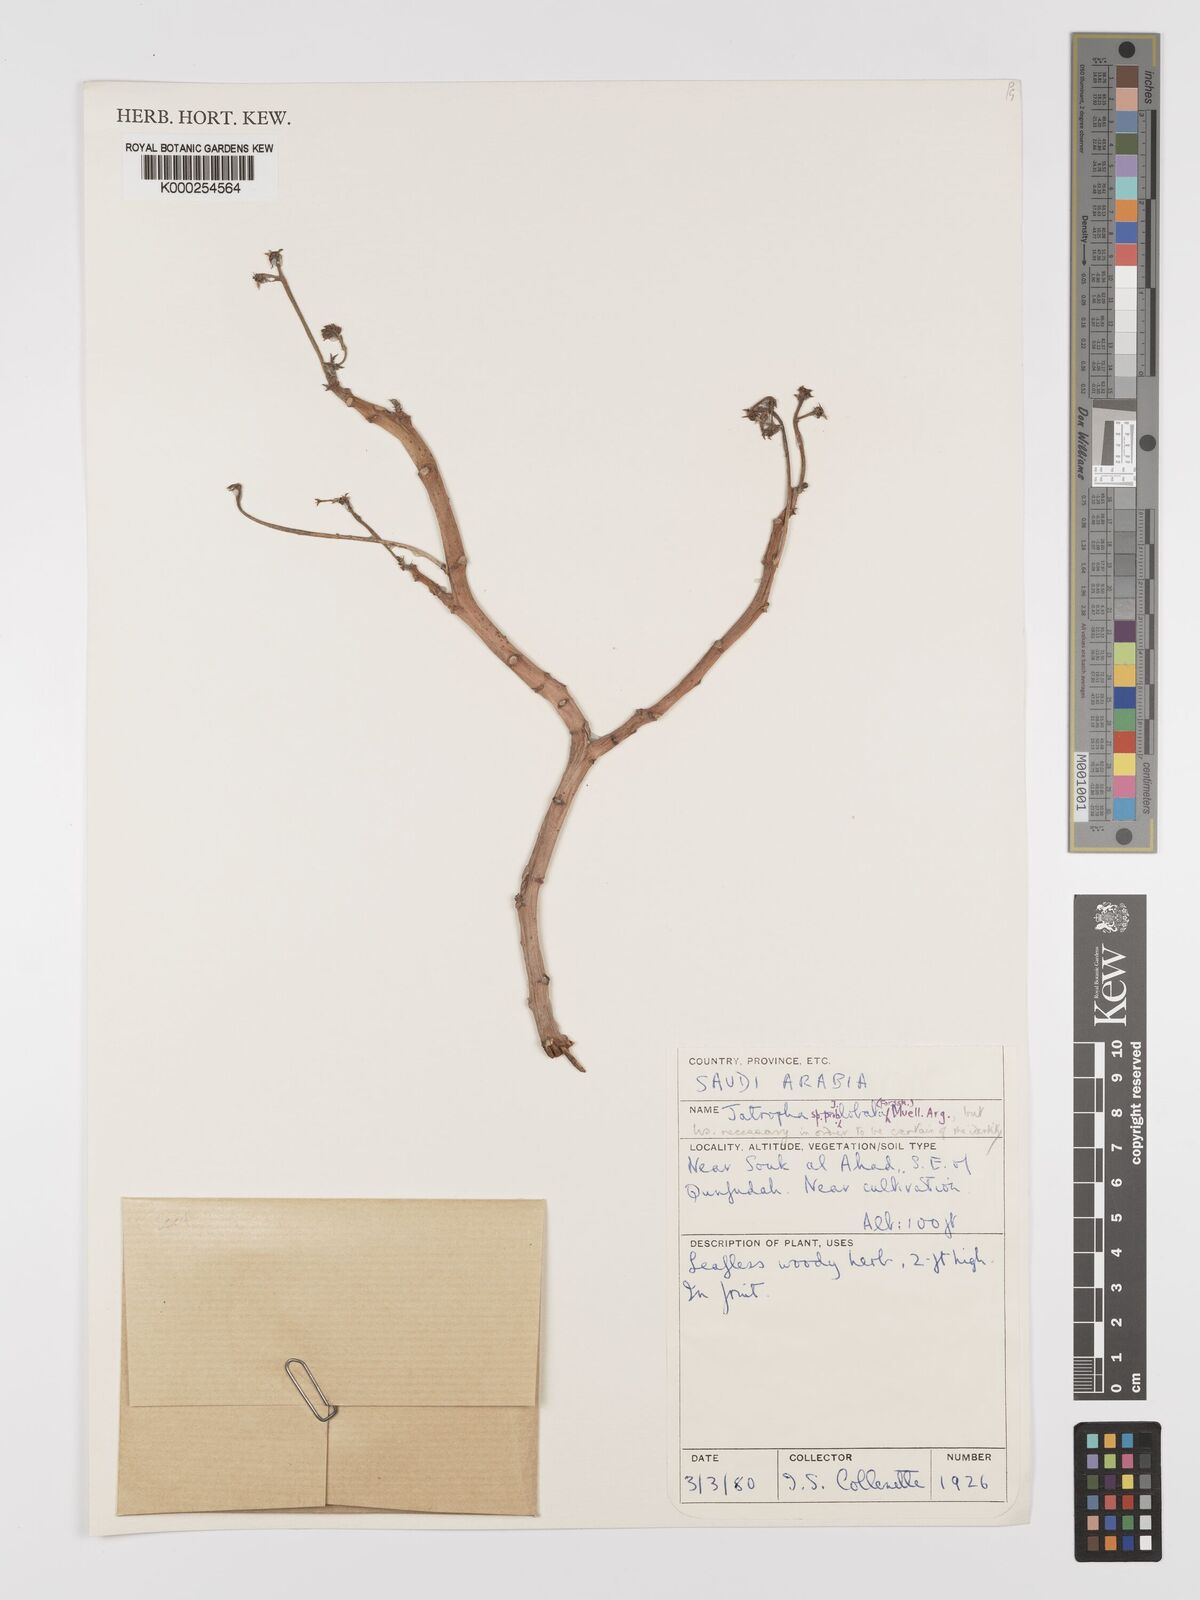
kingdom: Plantae
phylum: Tracheophyta
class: Magnoliopsida
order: Malpighiales
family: Euphorbiaceae
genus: Jatropha
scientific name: Jatropha glauca
